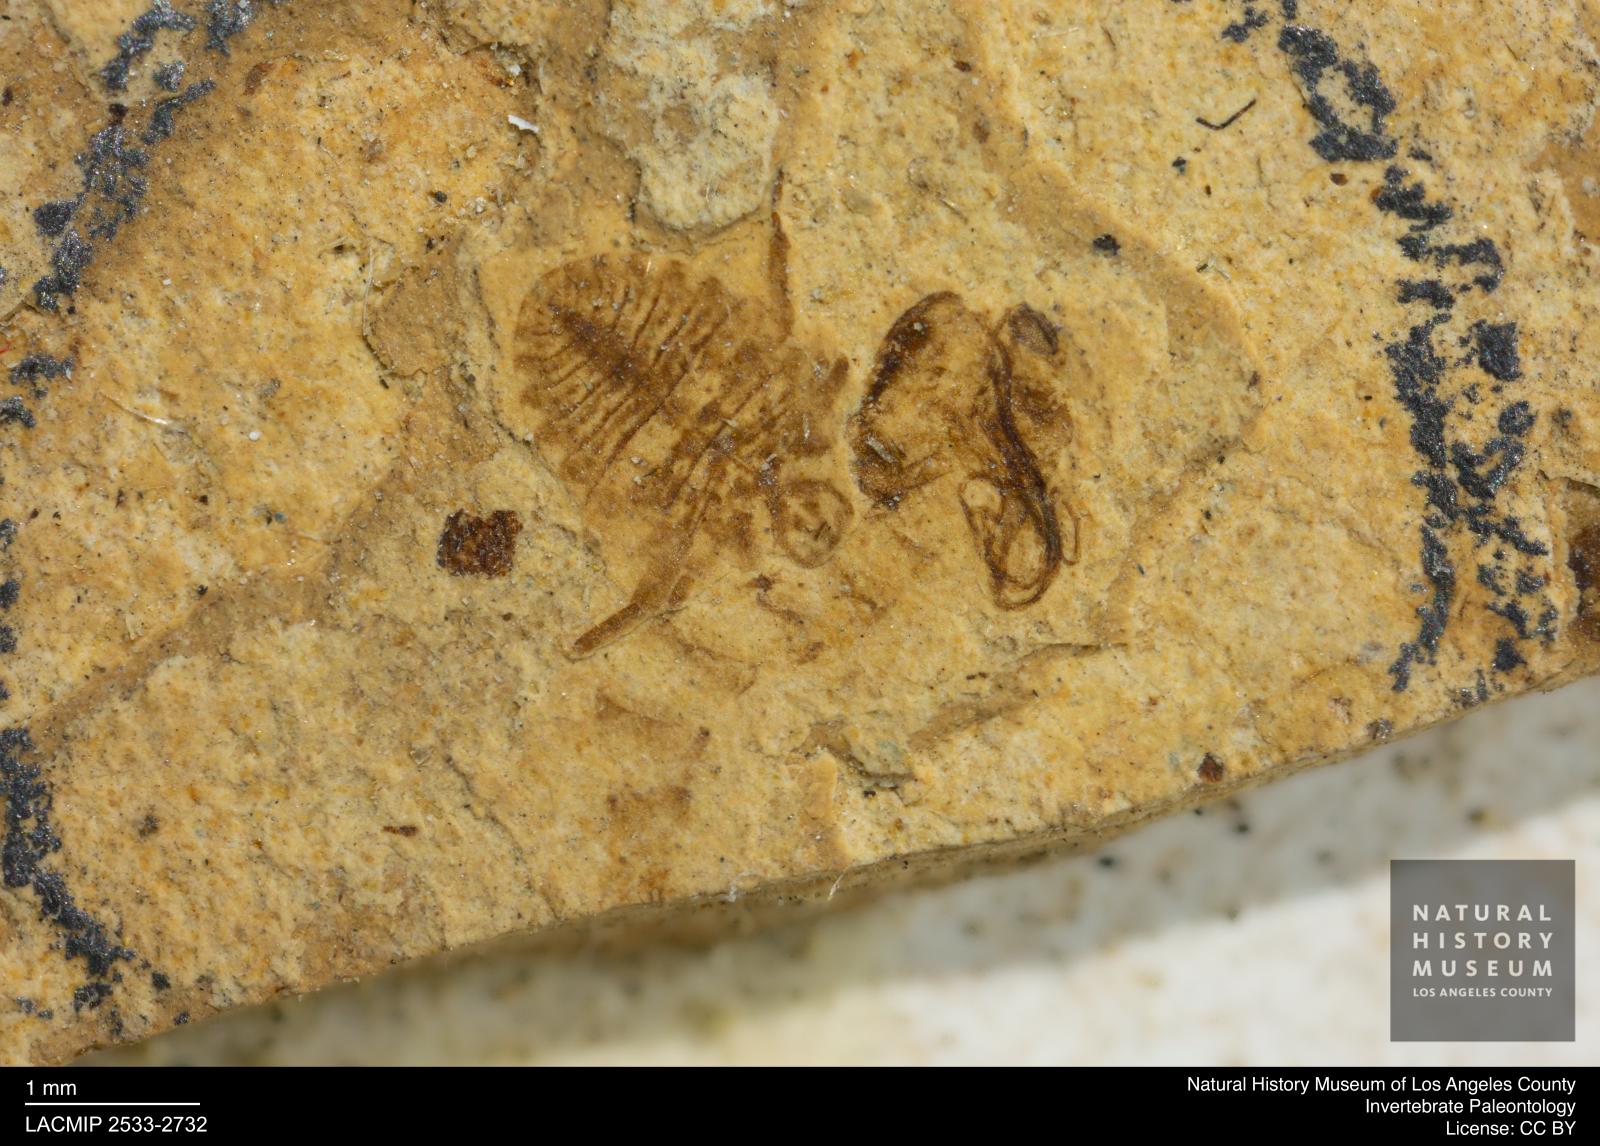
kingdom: Animalia
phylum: Arthropoda
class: Insecta
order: Hymenoptera
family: Braconidae
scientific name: Braconidae
